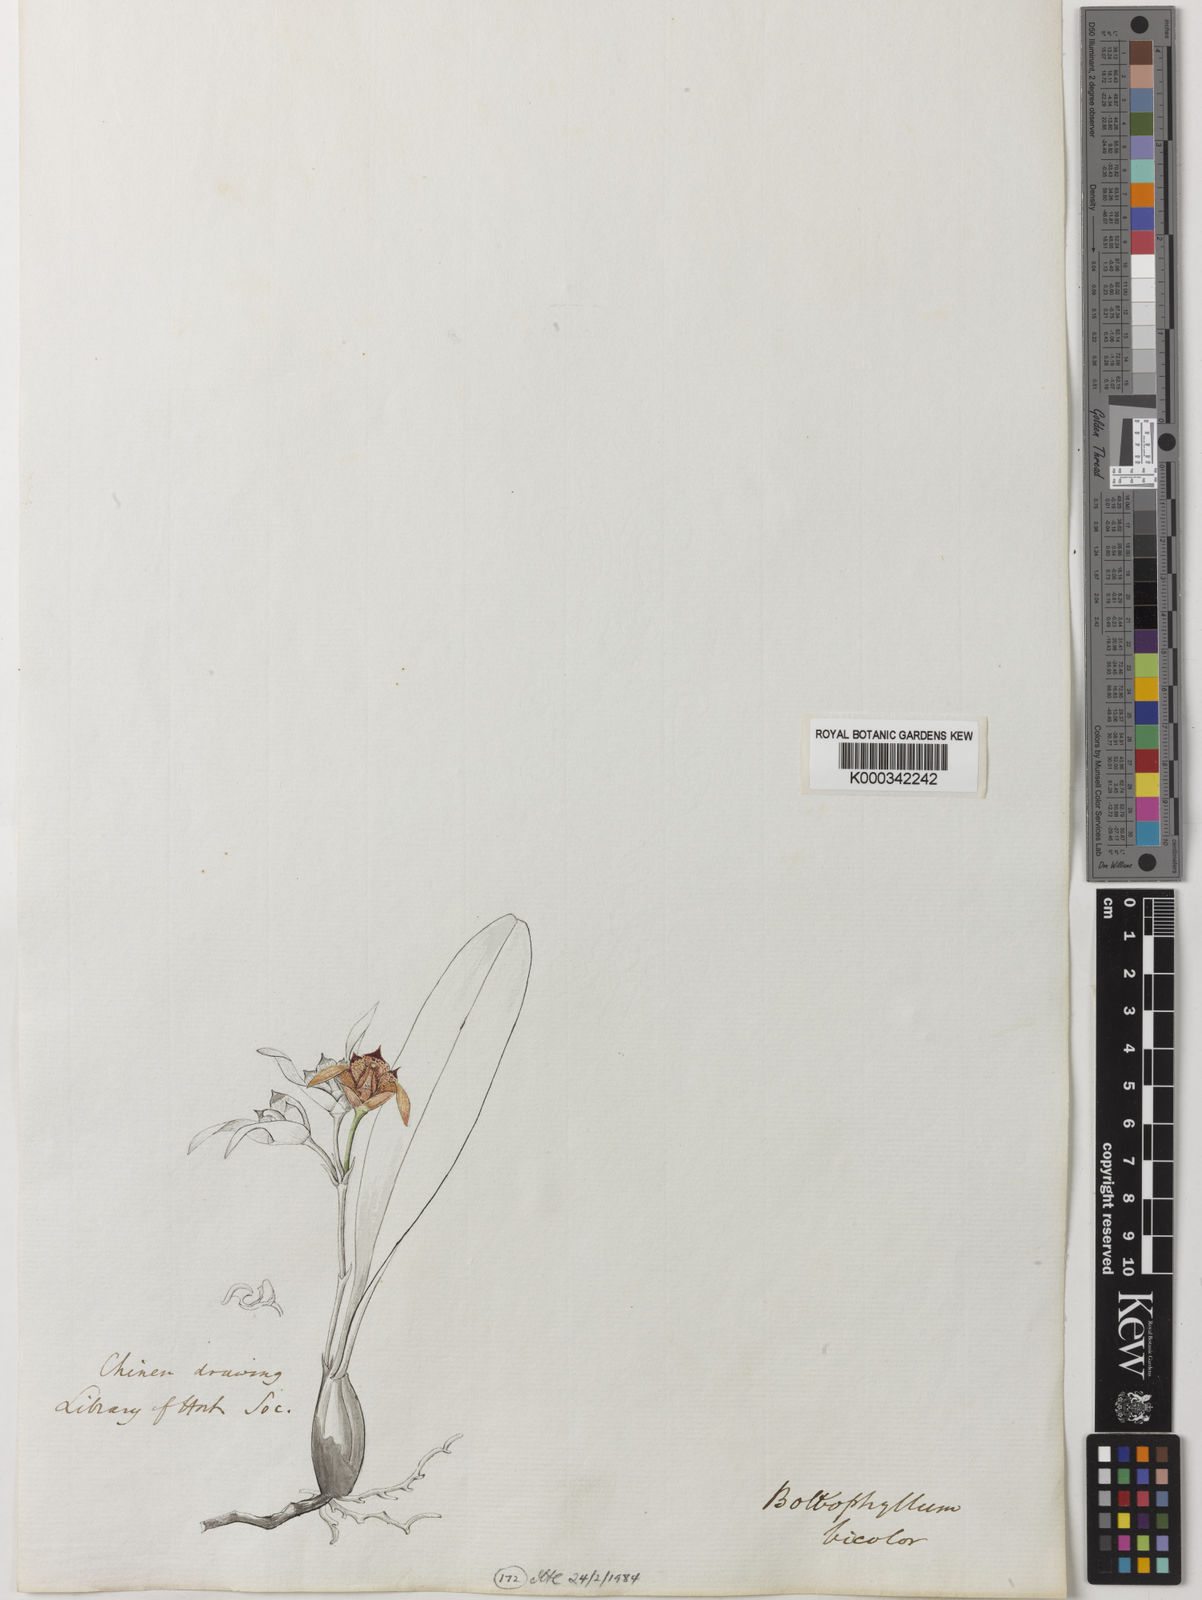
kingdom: Plantae
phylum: Tracheophyta
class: Liliopsida
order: Asparagales
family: Orchidaceae
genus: Bulbophyllum
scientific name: Bulbophyllum roseopictum
